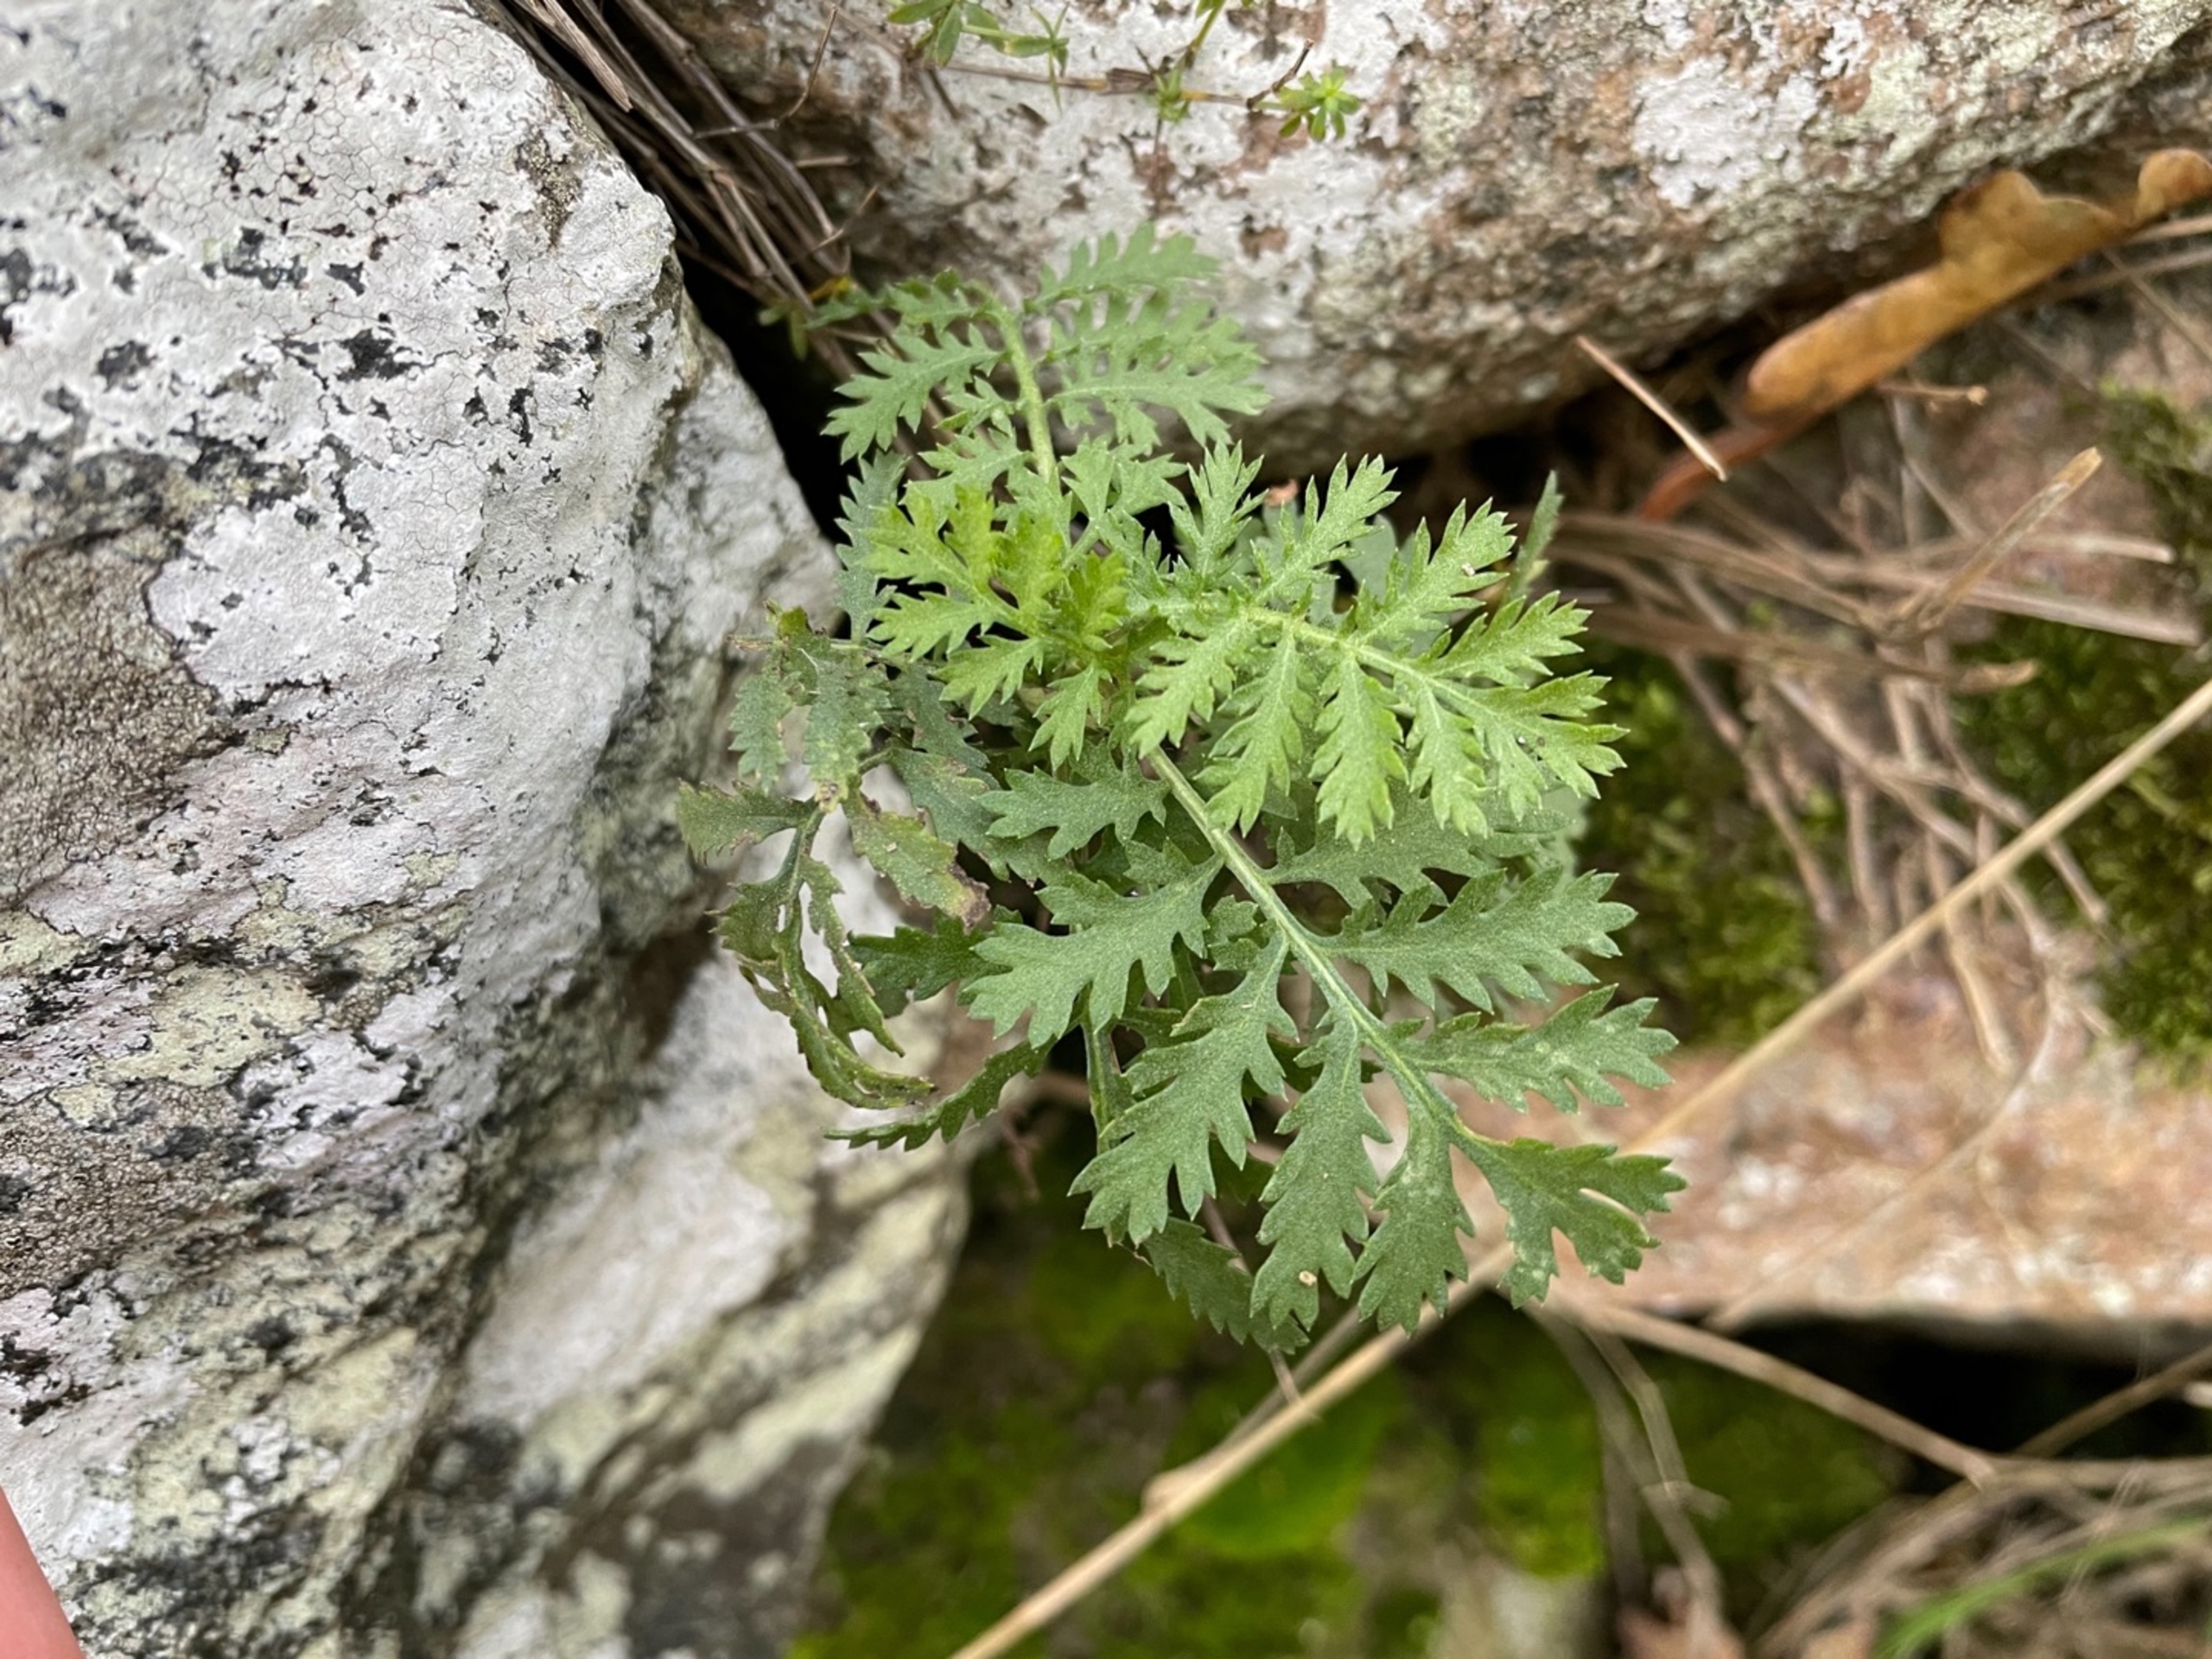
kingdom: Plantae
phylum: Tracheophyta
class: Magnoliopsida
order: Asterales
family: Asteraceae
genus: Tanacetum
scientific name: Tanacetum vulgare
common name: Rejnfan
